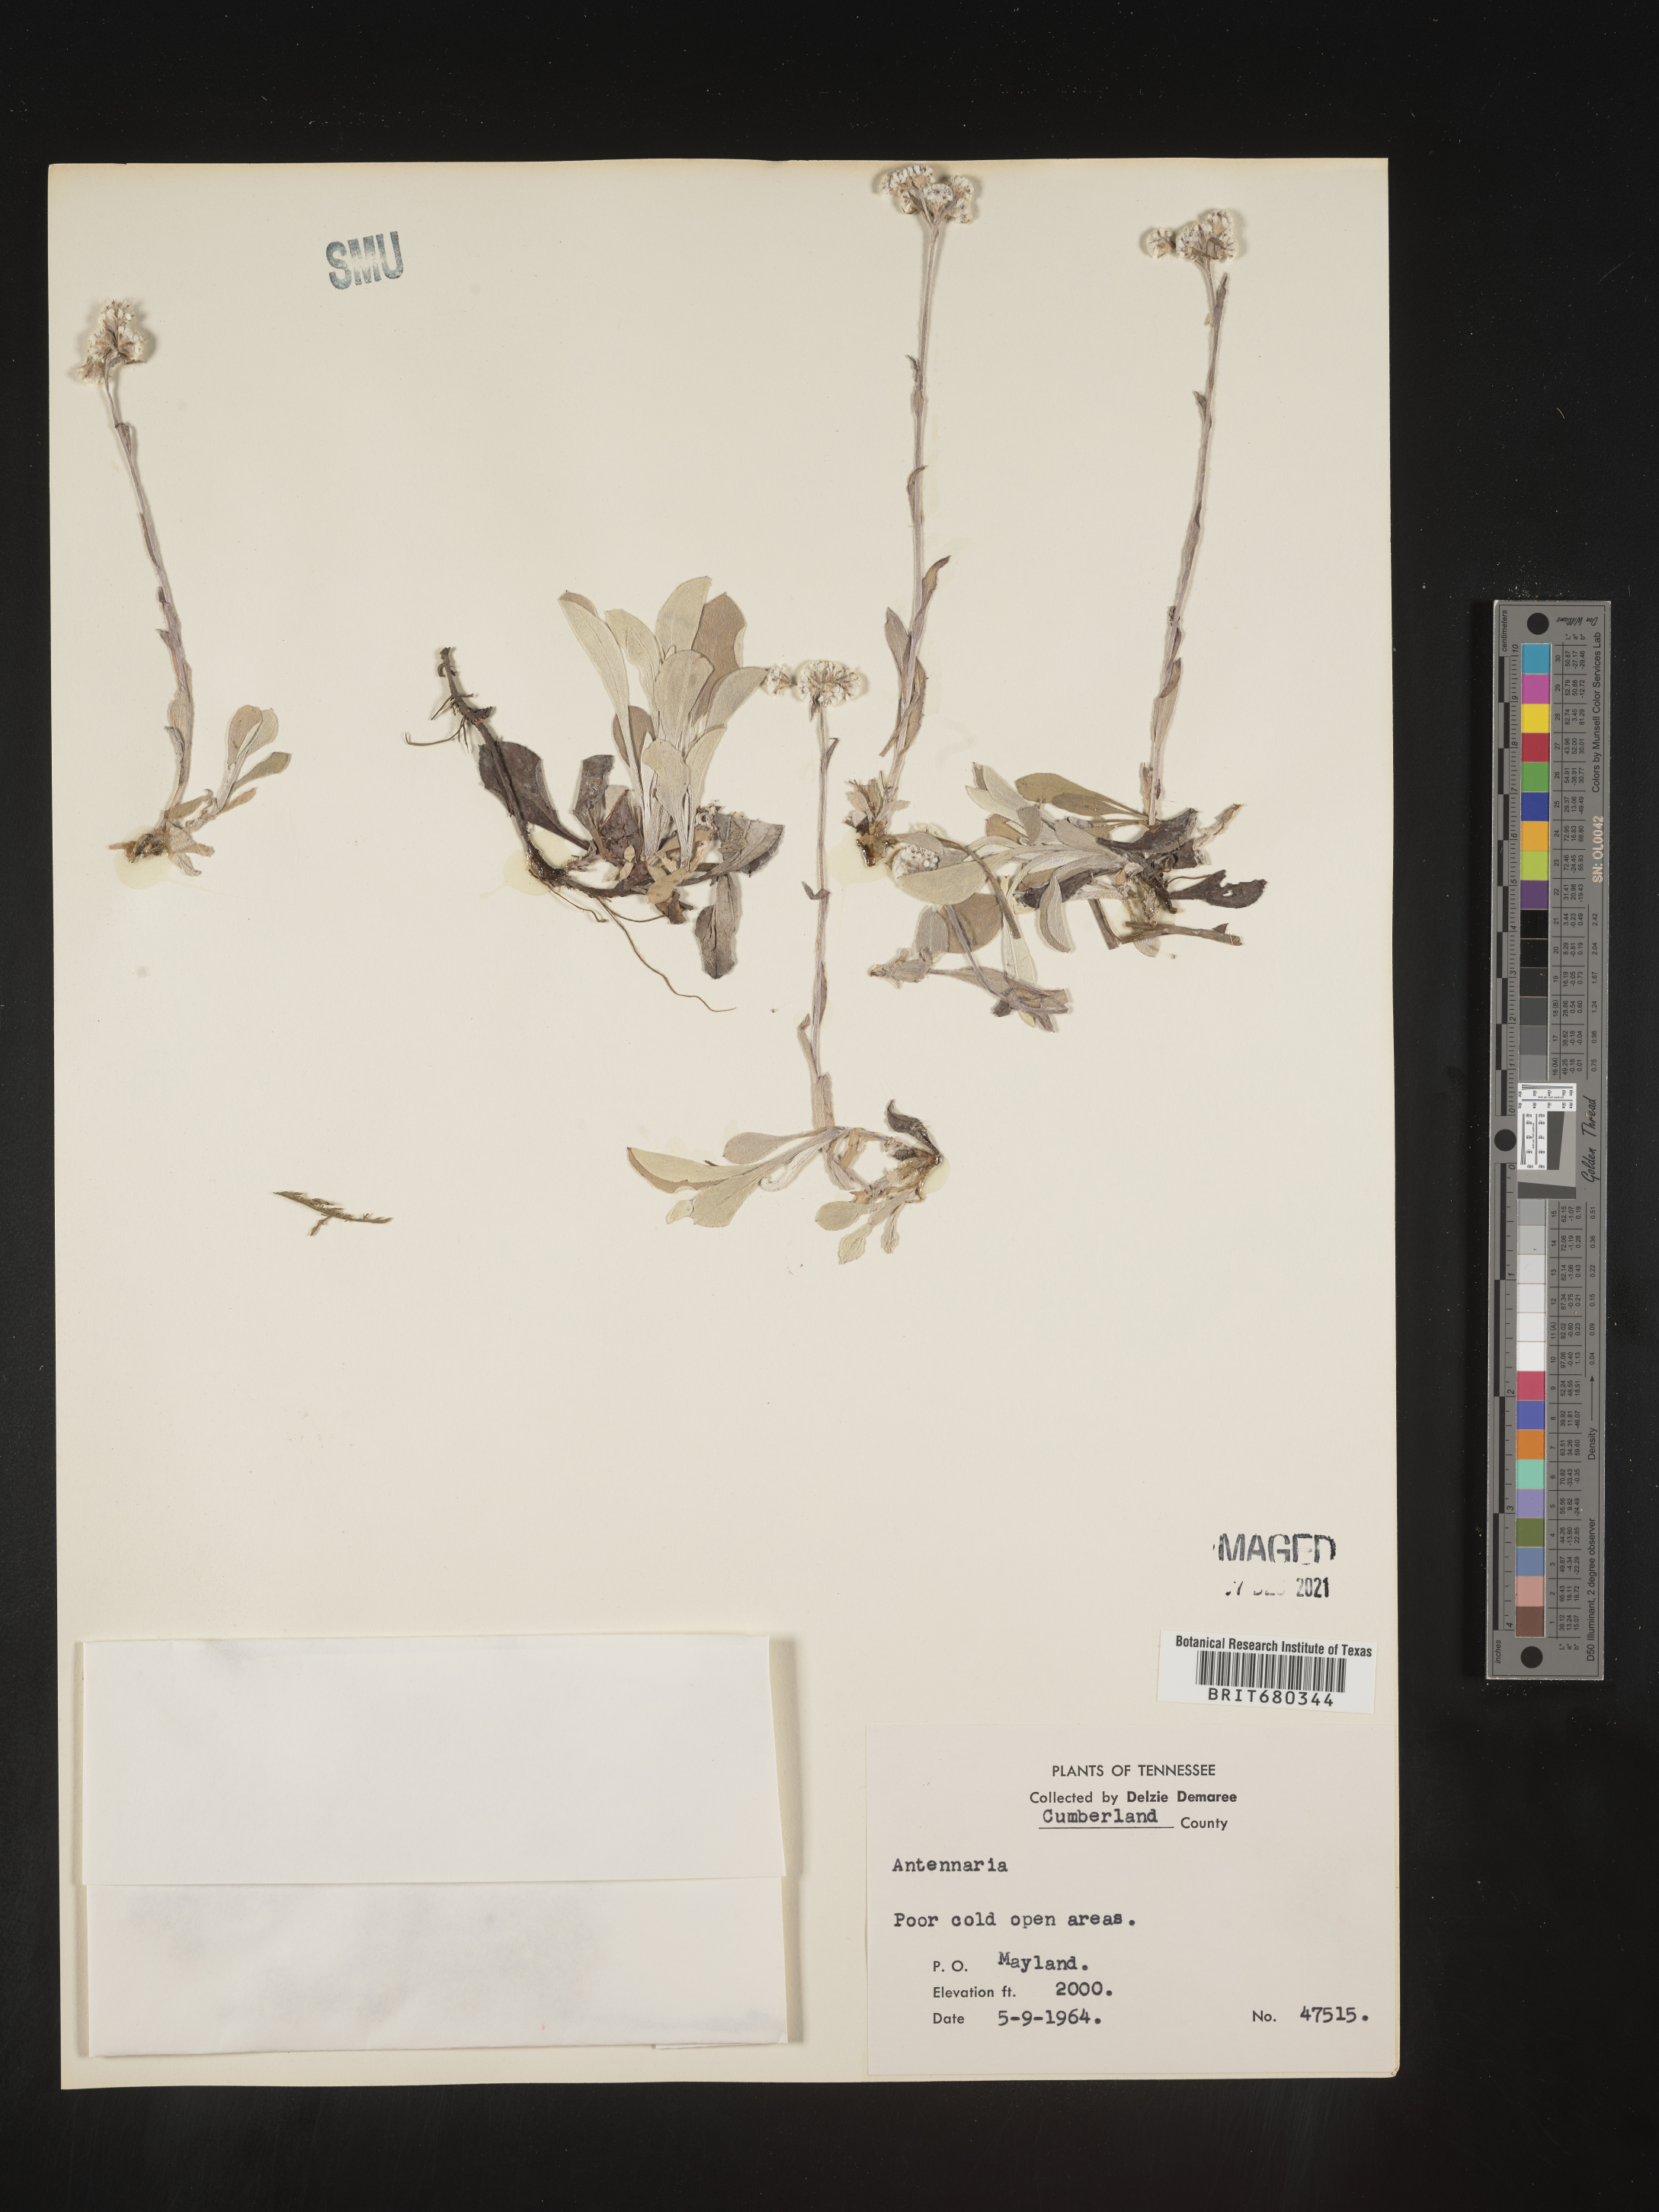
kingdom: Plantae
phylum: Tracheophyta
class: Magnoliopsida
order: Asterales
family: Asteraceae
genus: Antennaria
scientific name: Antennaria
